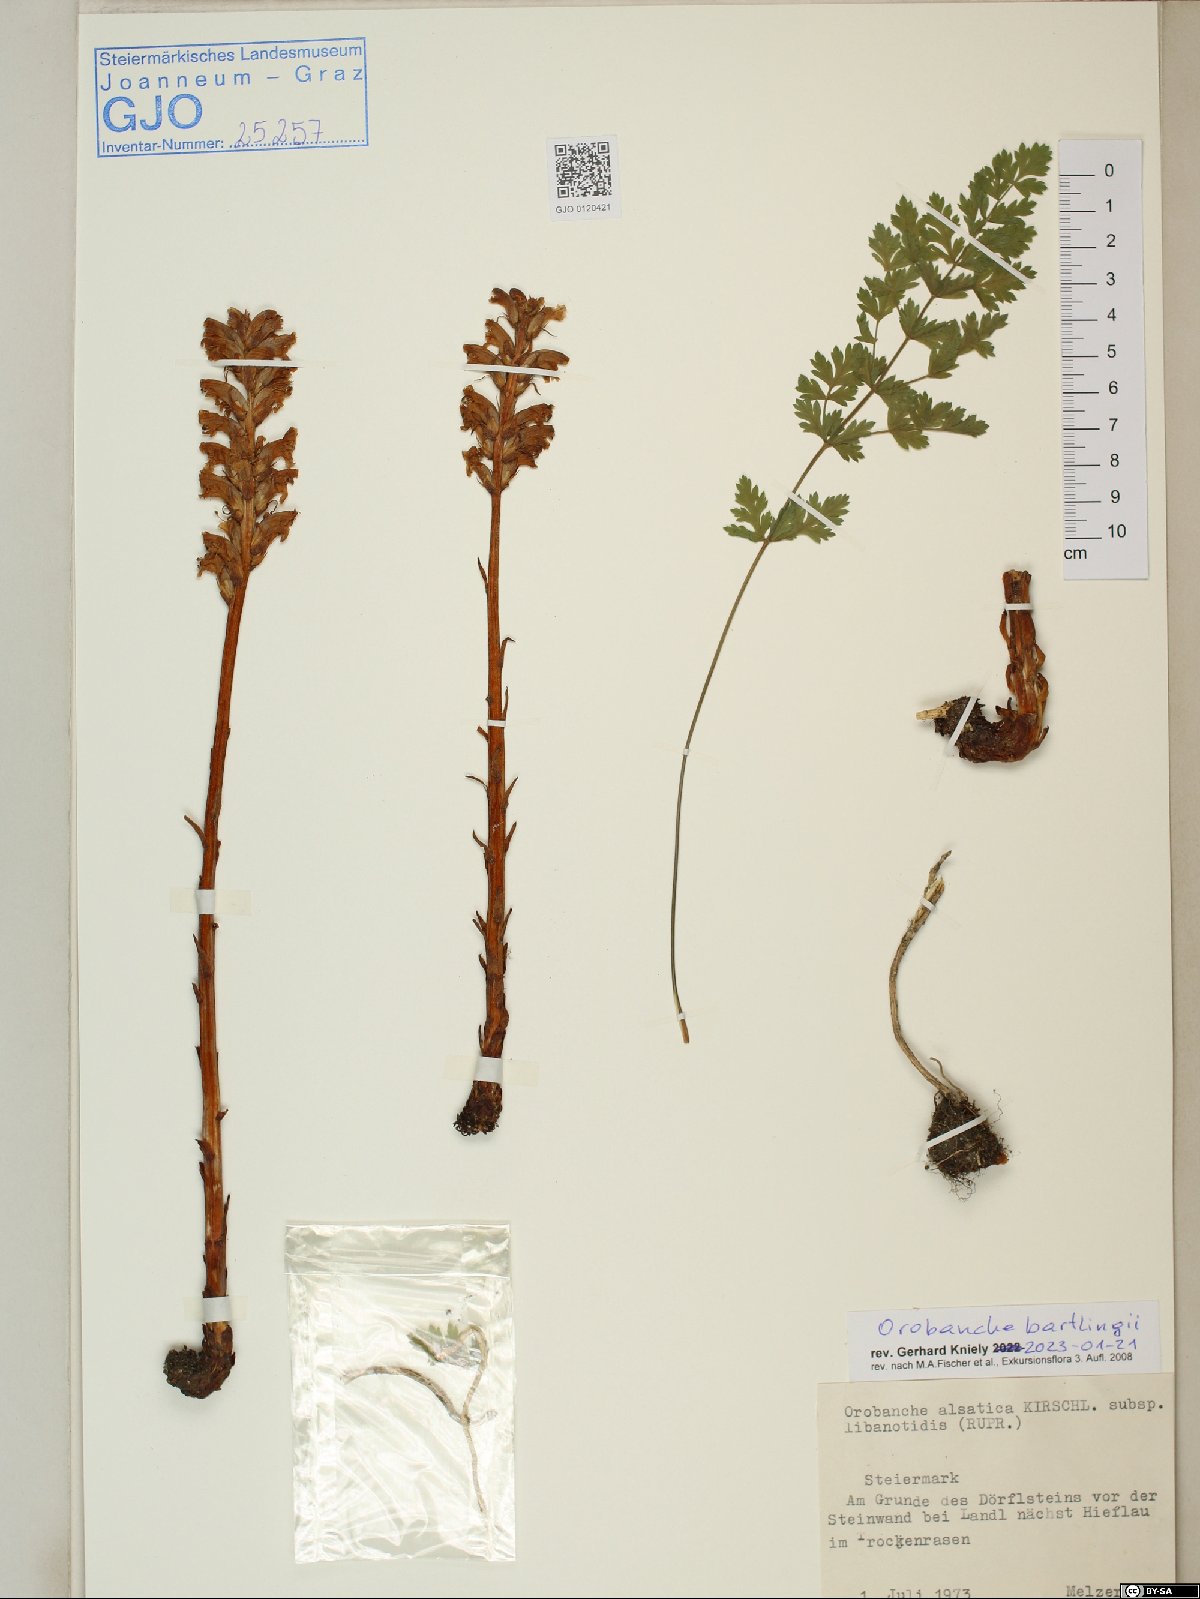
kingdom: Plantae
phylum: Tracheophyta
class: Magnoliopsida
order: Lamiales
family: Orobanchaceae
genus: Orobanche
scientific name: Orobanche alsatica
